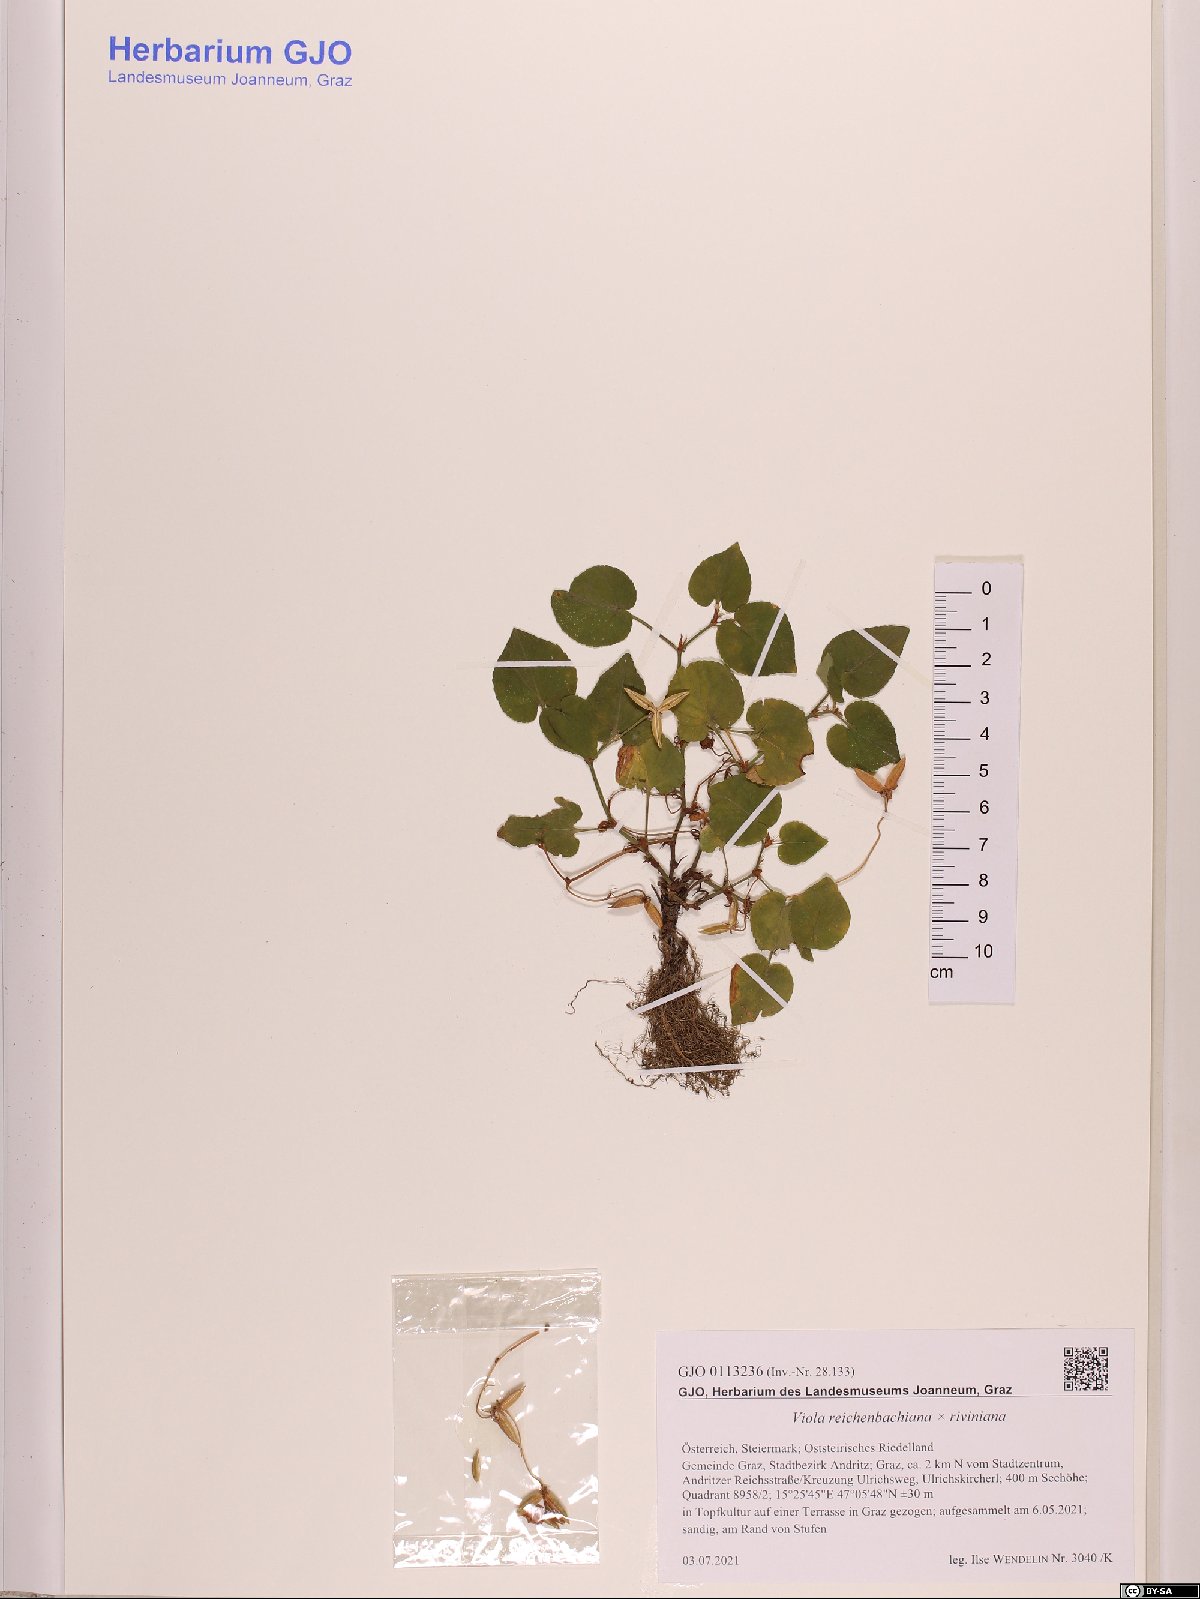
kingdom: Plantae
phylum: Tracheophyta
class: Magnoliopsida
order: Malpighiales
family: Violaceae
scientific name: Violaceae
